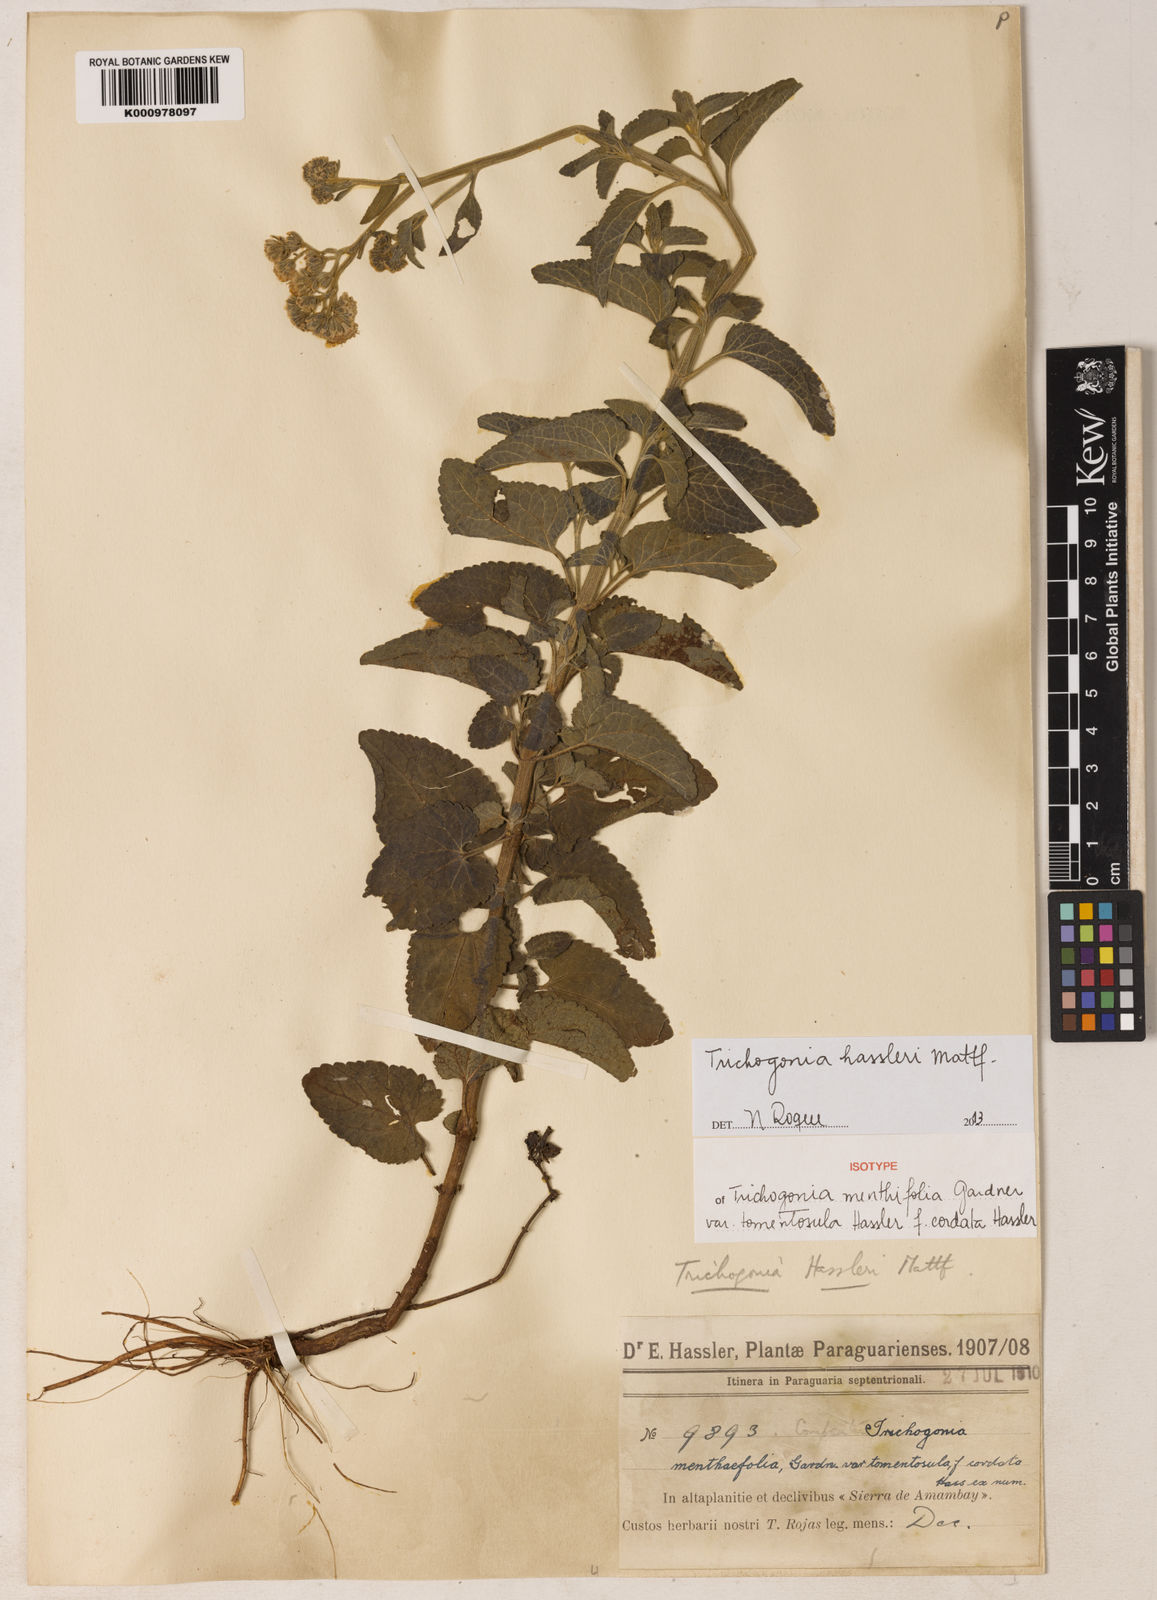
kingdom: Plantae
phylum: Tracheophyta
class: Magnoliopsida
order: Asterales
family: Asteraceae
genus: Trichogonia
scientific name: Trichogonia hassleri
